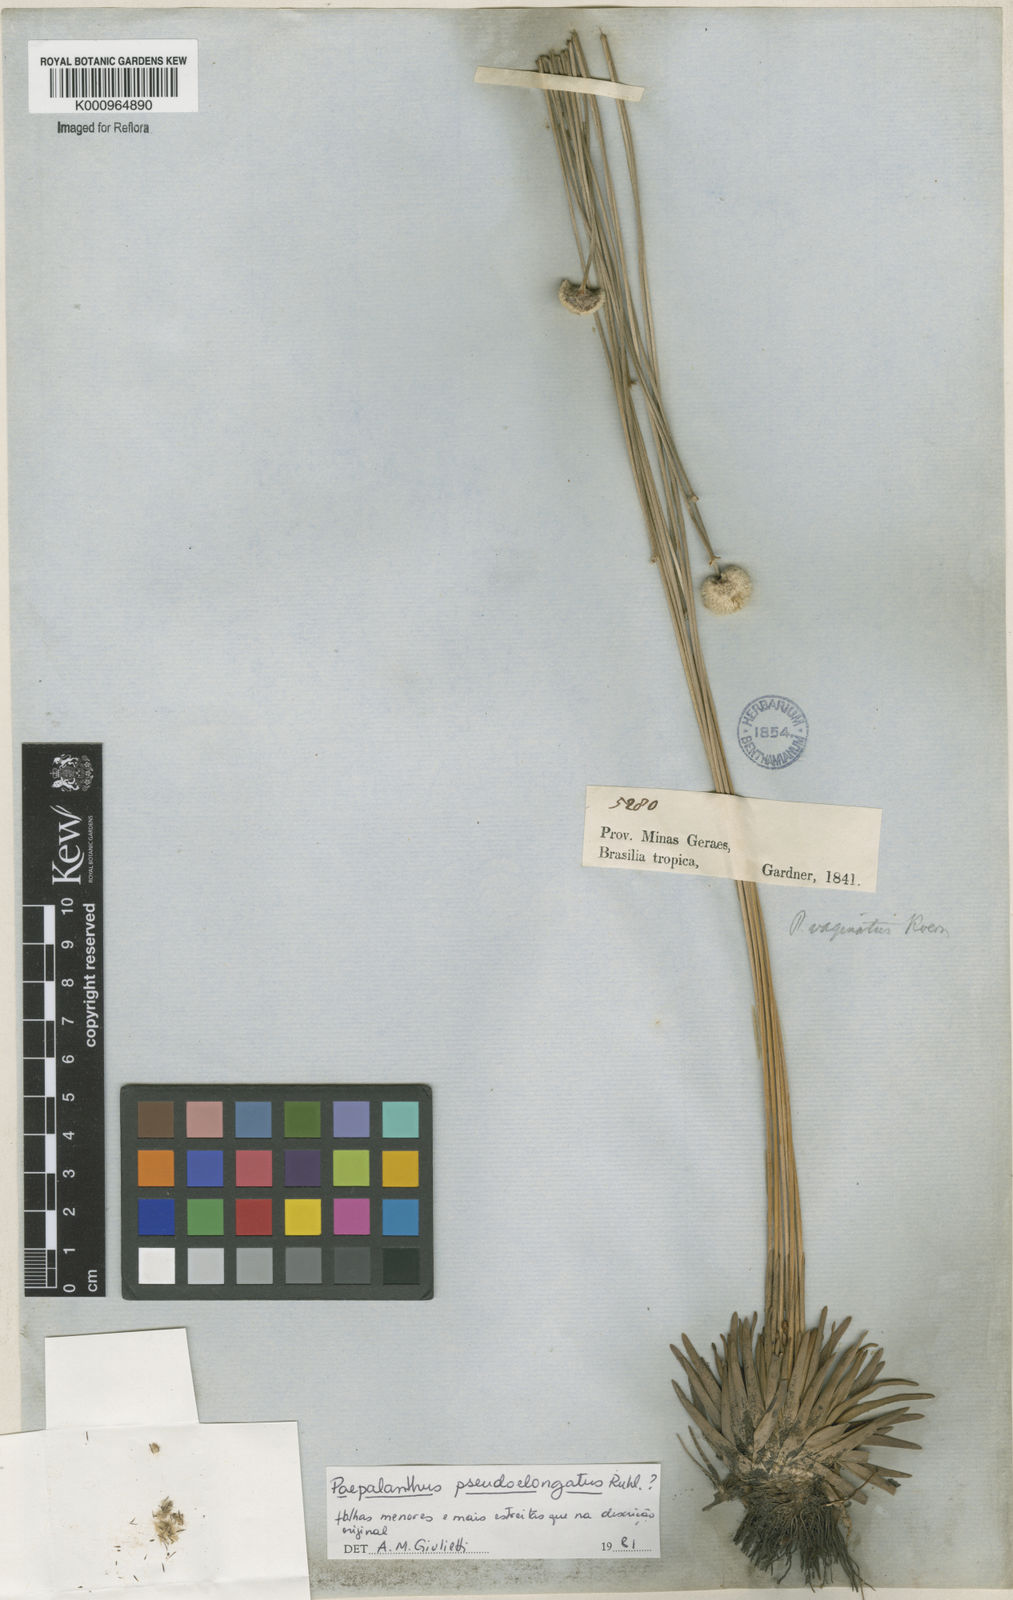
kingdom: Plantae
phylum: Tracheophyta
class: Liliopsida
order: Poales
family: Eriocaulaceae
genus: Paepalanthus
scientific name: Paepalanthus
